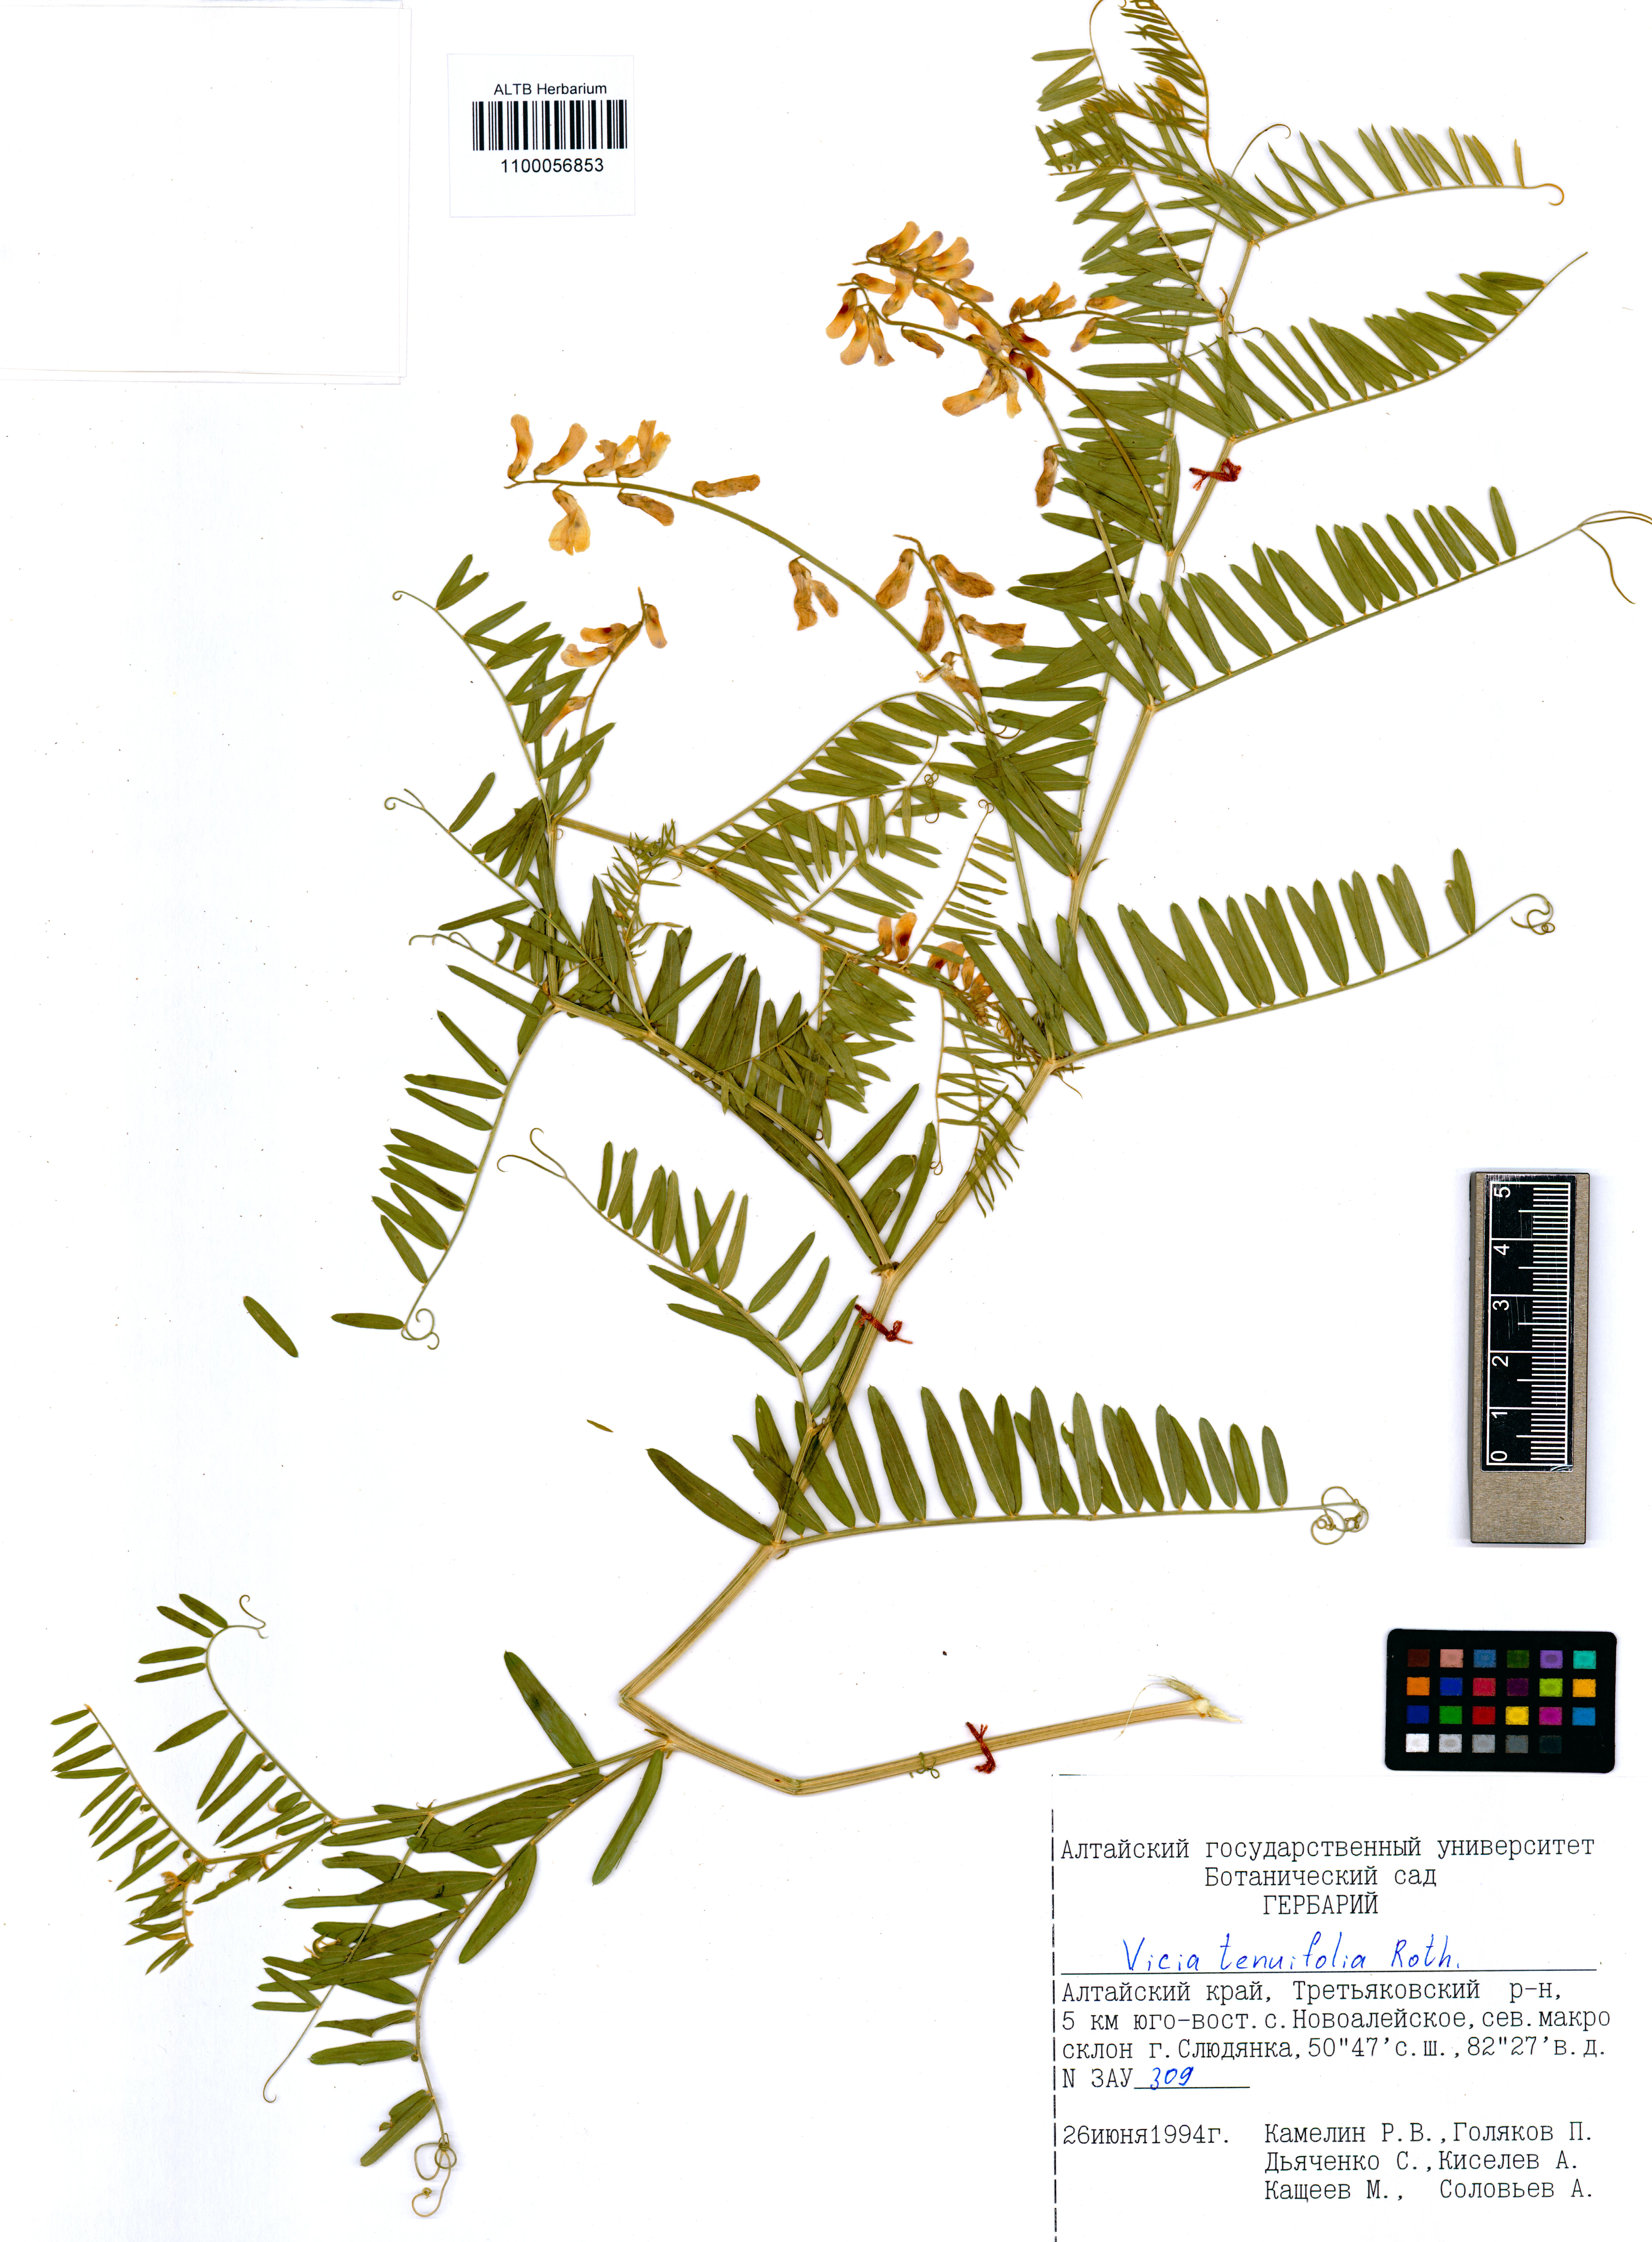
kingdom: Plantae
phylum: Tracheophyta
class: Magnoliopsida
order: Fabales
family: Fabaceae
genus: Vicia
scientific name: Vicia tenuifolia
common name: Fine-leaved vetch
